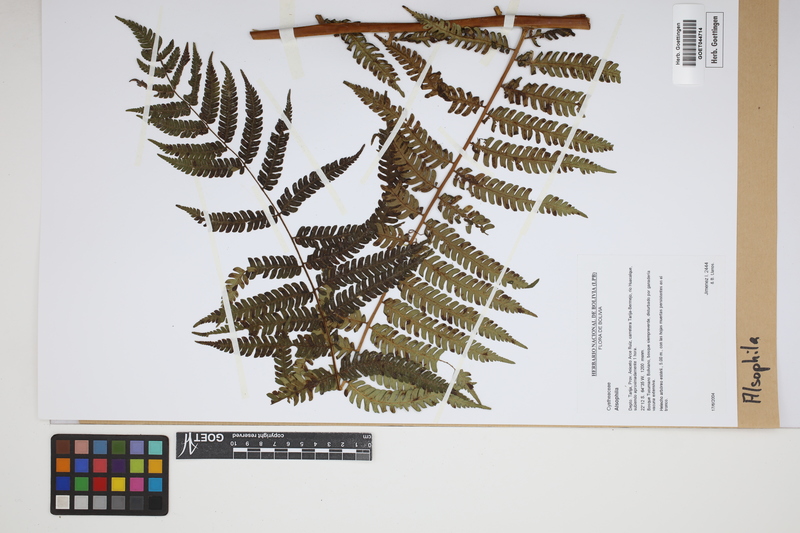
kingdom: Plantae
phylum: Tracheophyta
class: Polypodiopsida
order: Cyatheales
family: Cyatheaceae
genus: Alsophila
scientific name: Alsophila
